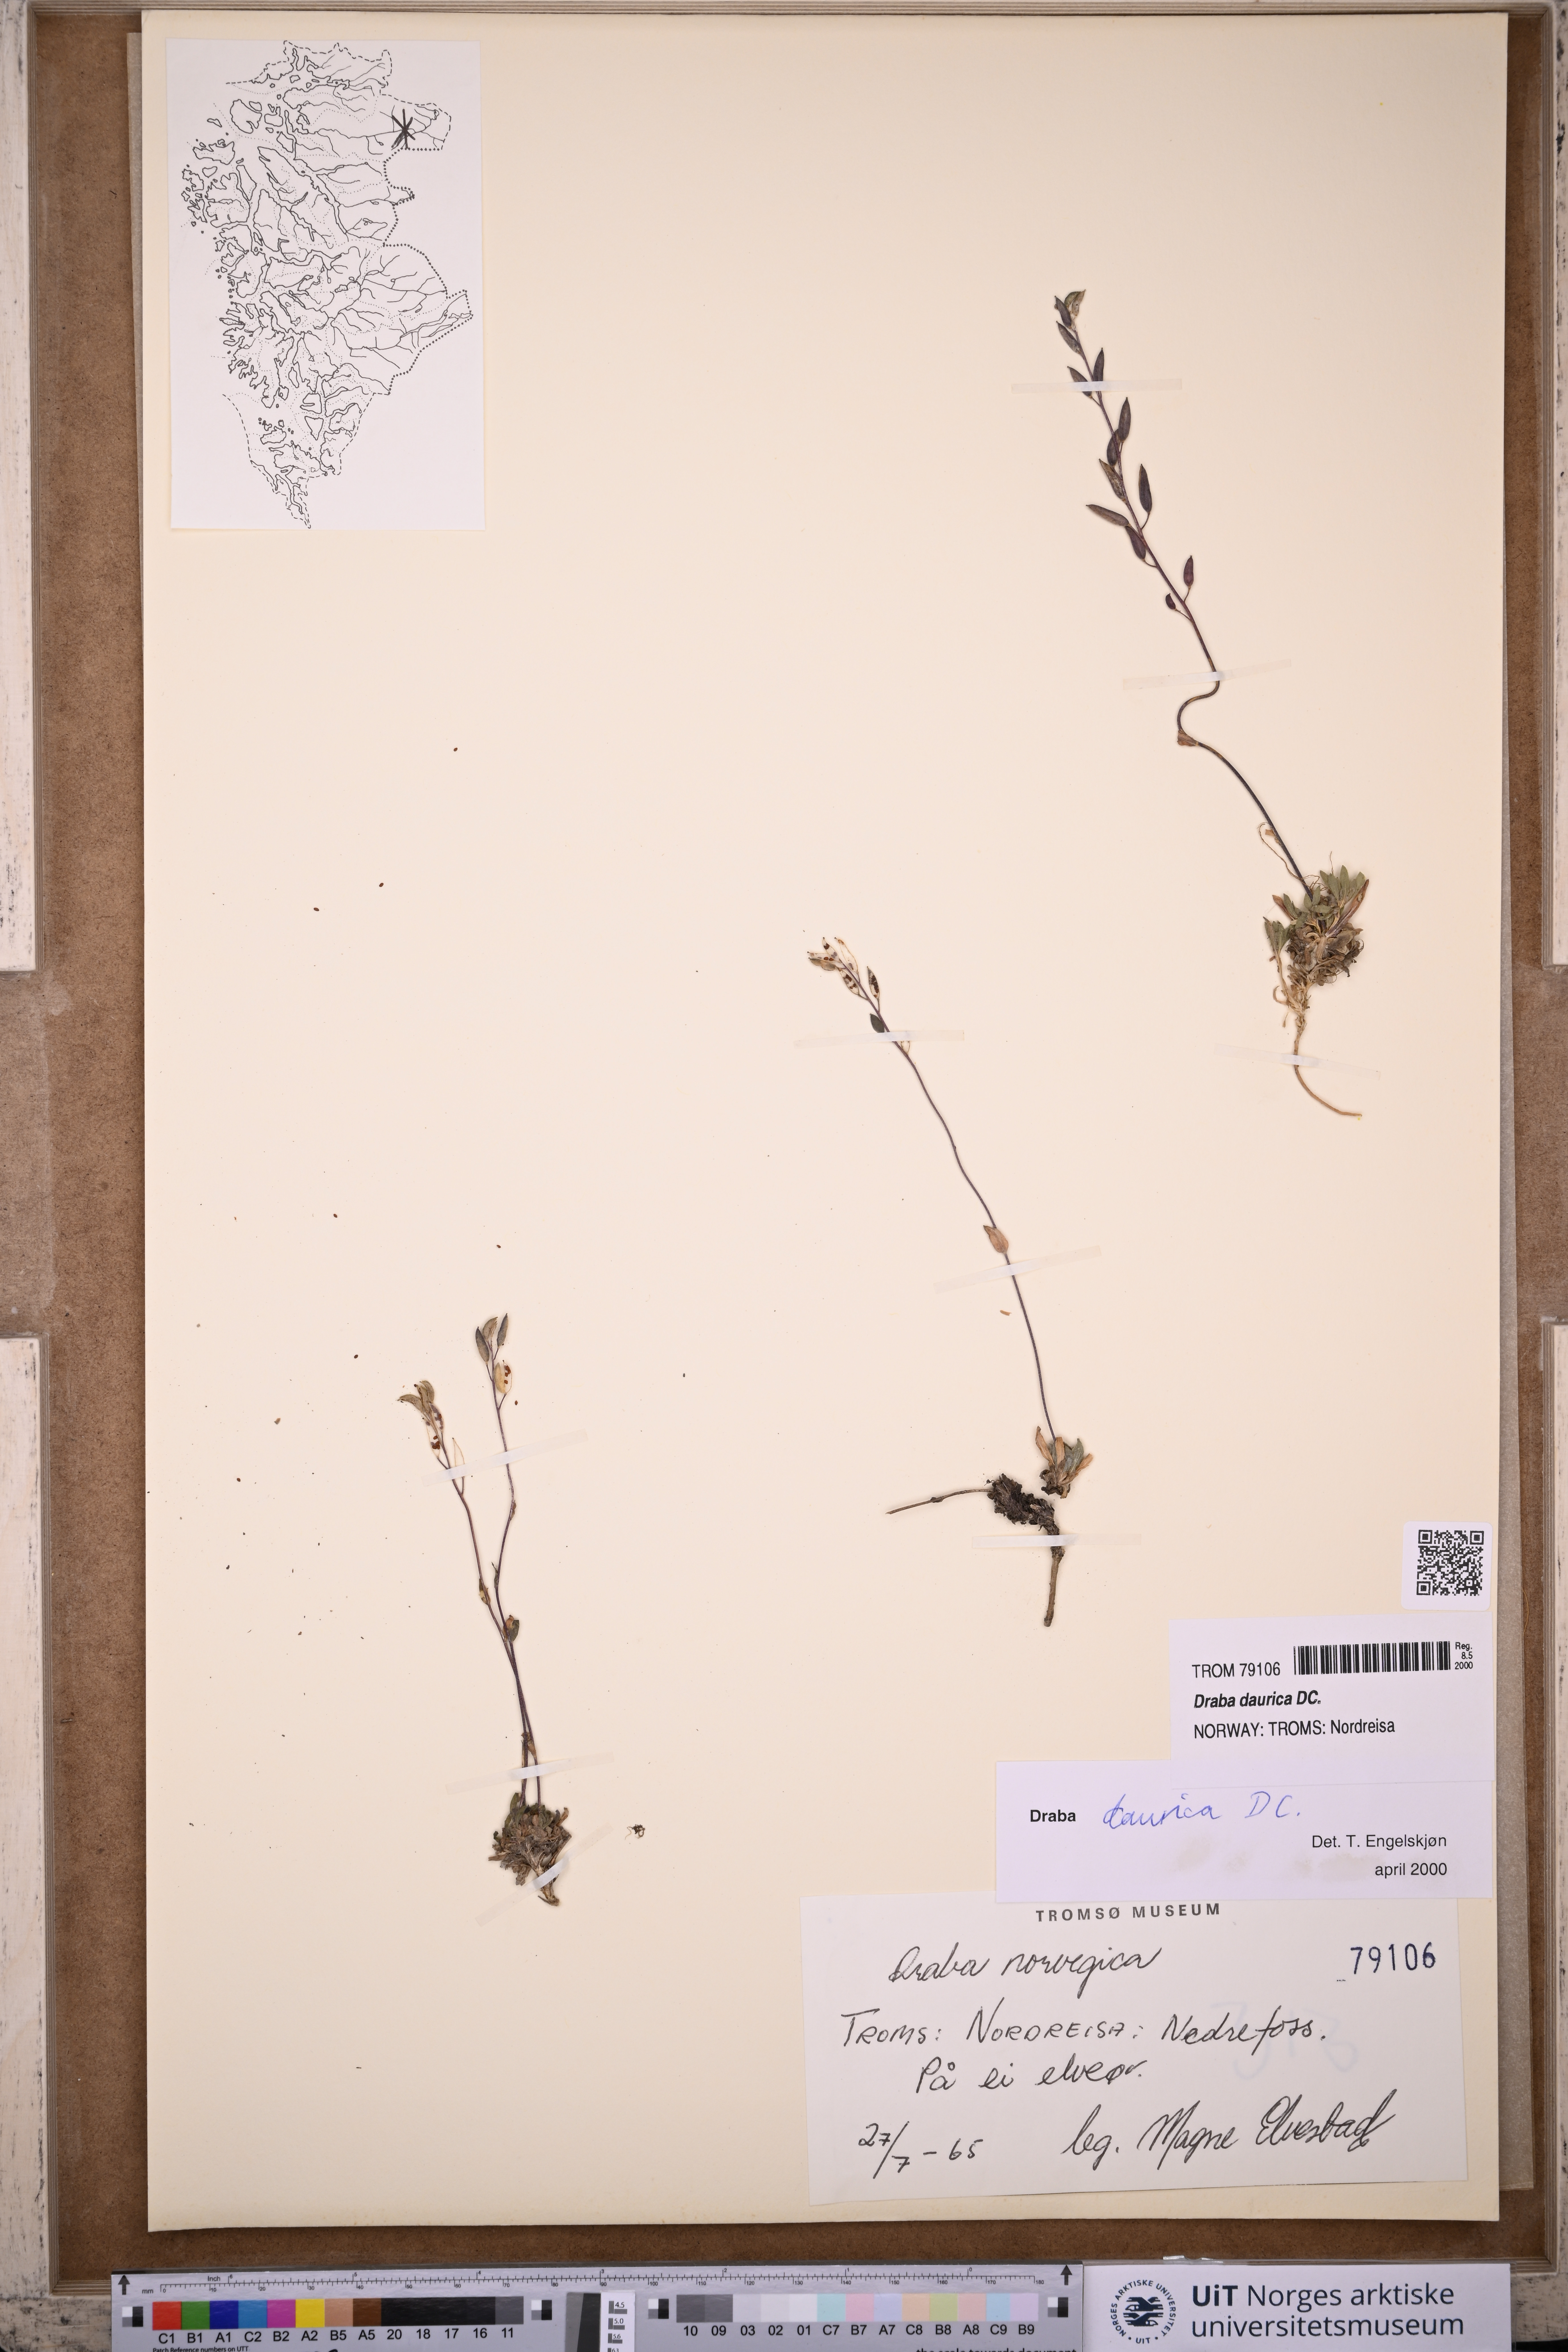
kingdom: Plantae
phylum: Tracheophyta
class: Magnoliopsida
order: Brassicales
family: Brassicaceae
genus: Draba
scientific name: Draba glabella
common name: Glaucous draba
